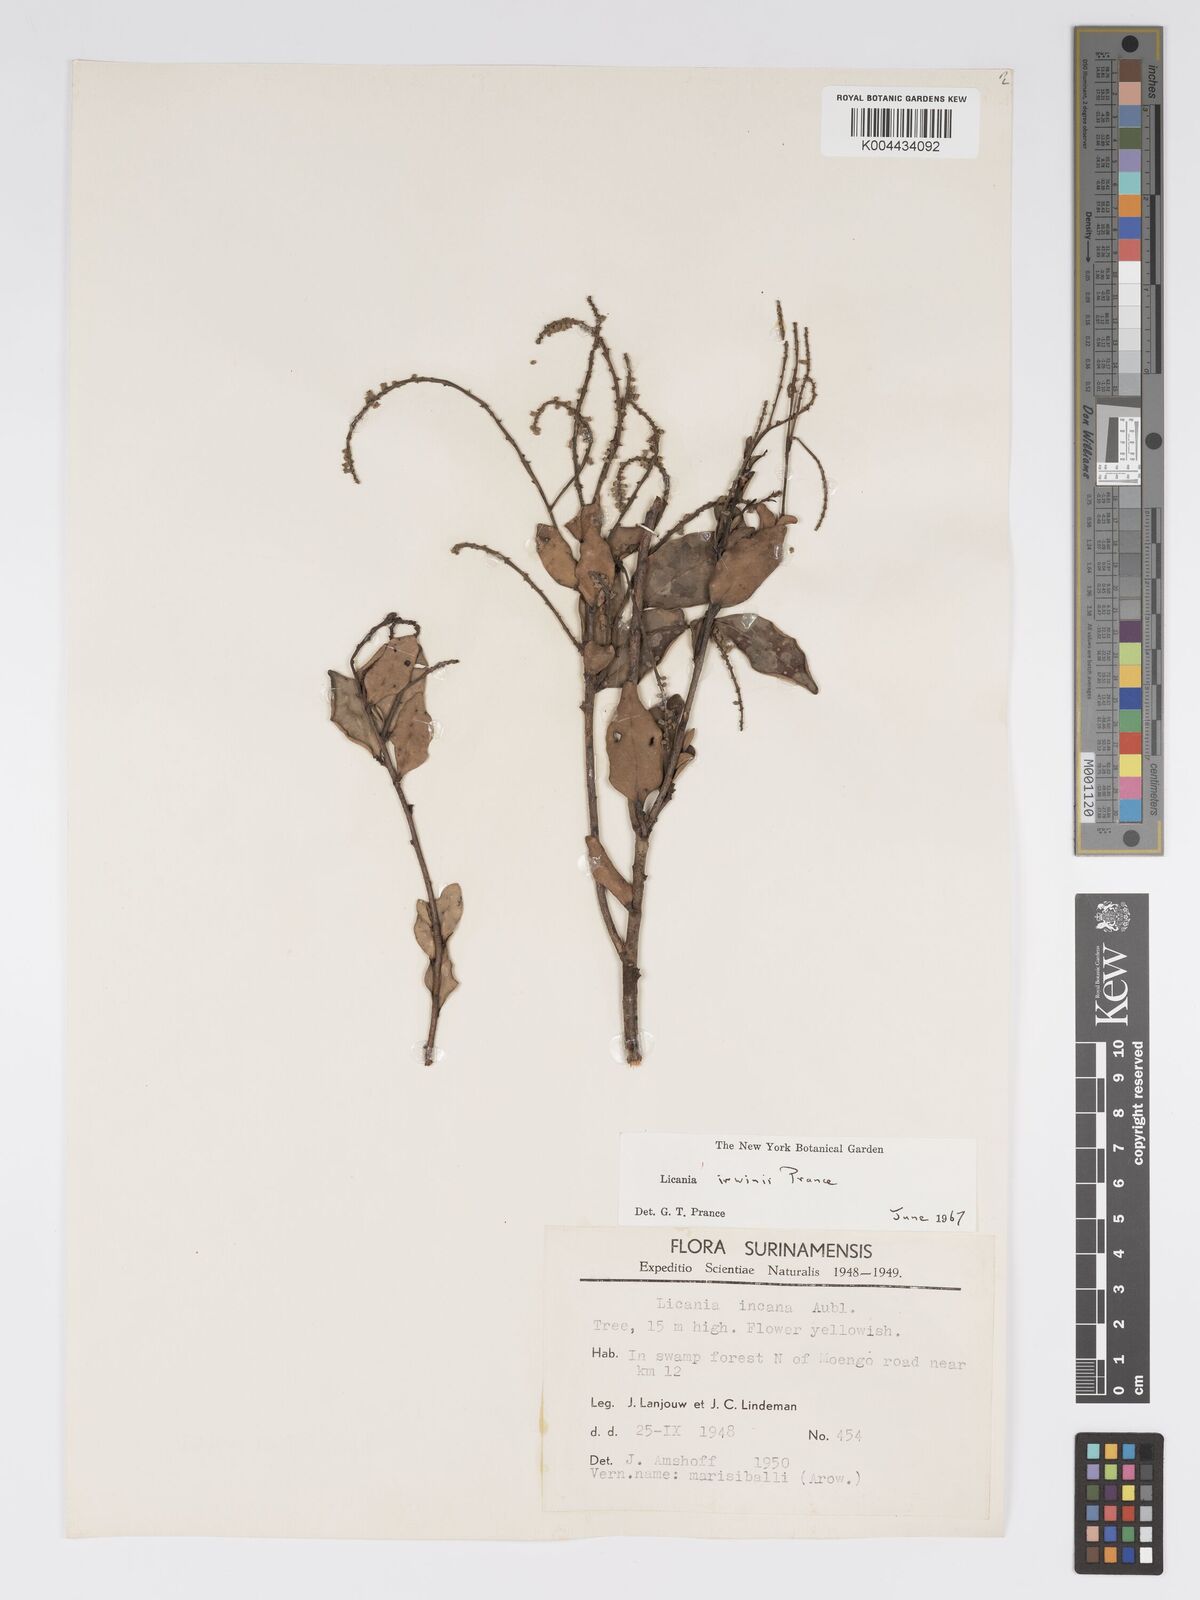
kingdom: Plantae
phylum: Tracheophyta
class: Magnoliopsida
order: Malpighiales
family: Chrysobalanaceae
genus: Licania
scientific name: Licania irwinii
